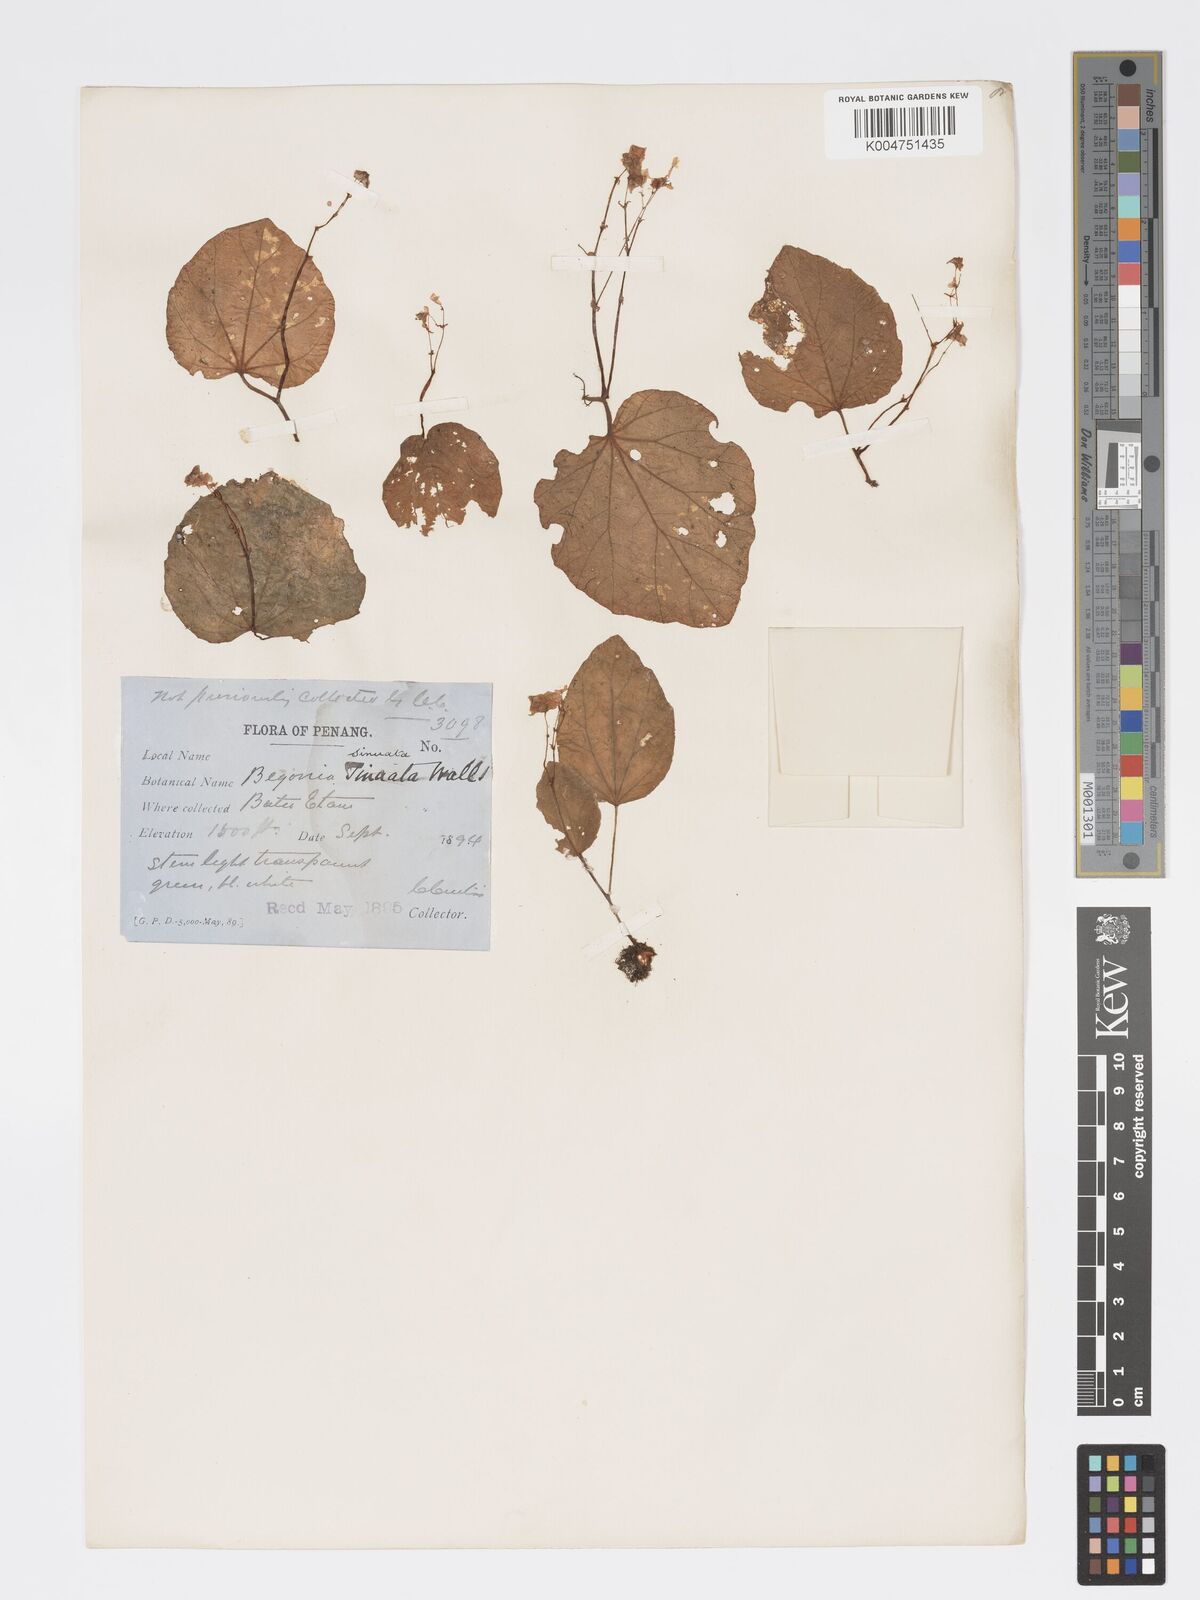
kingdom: Plantae
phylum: Tracheophyta
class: Magnoliopsida
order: Cucurbitales
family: Begoniaceae
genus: Begonia
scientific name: Begonia
